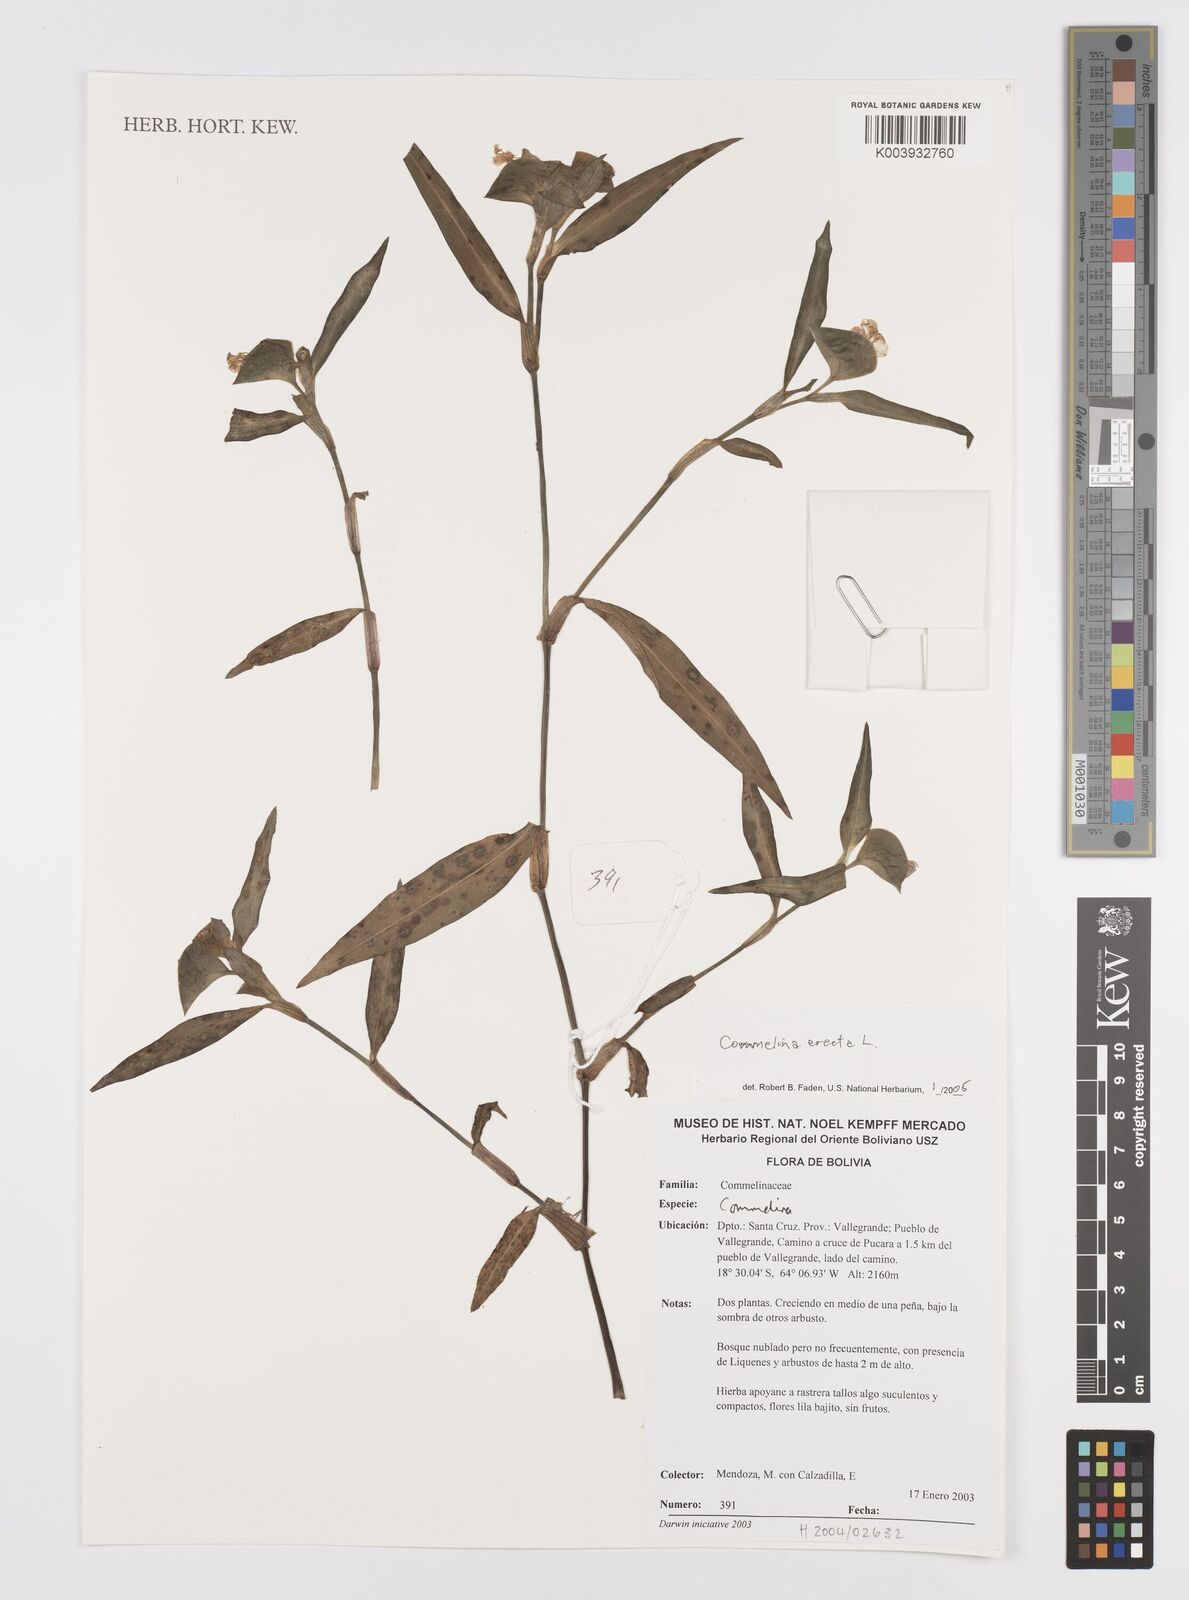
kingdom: Plantae
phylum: Tracheophyta
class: Liliopsida
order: Commelinales
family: Commelinaceae
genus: Commelina
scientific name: Commelina erecta
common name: Blousel blommetjie
